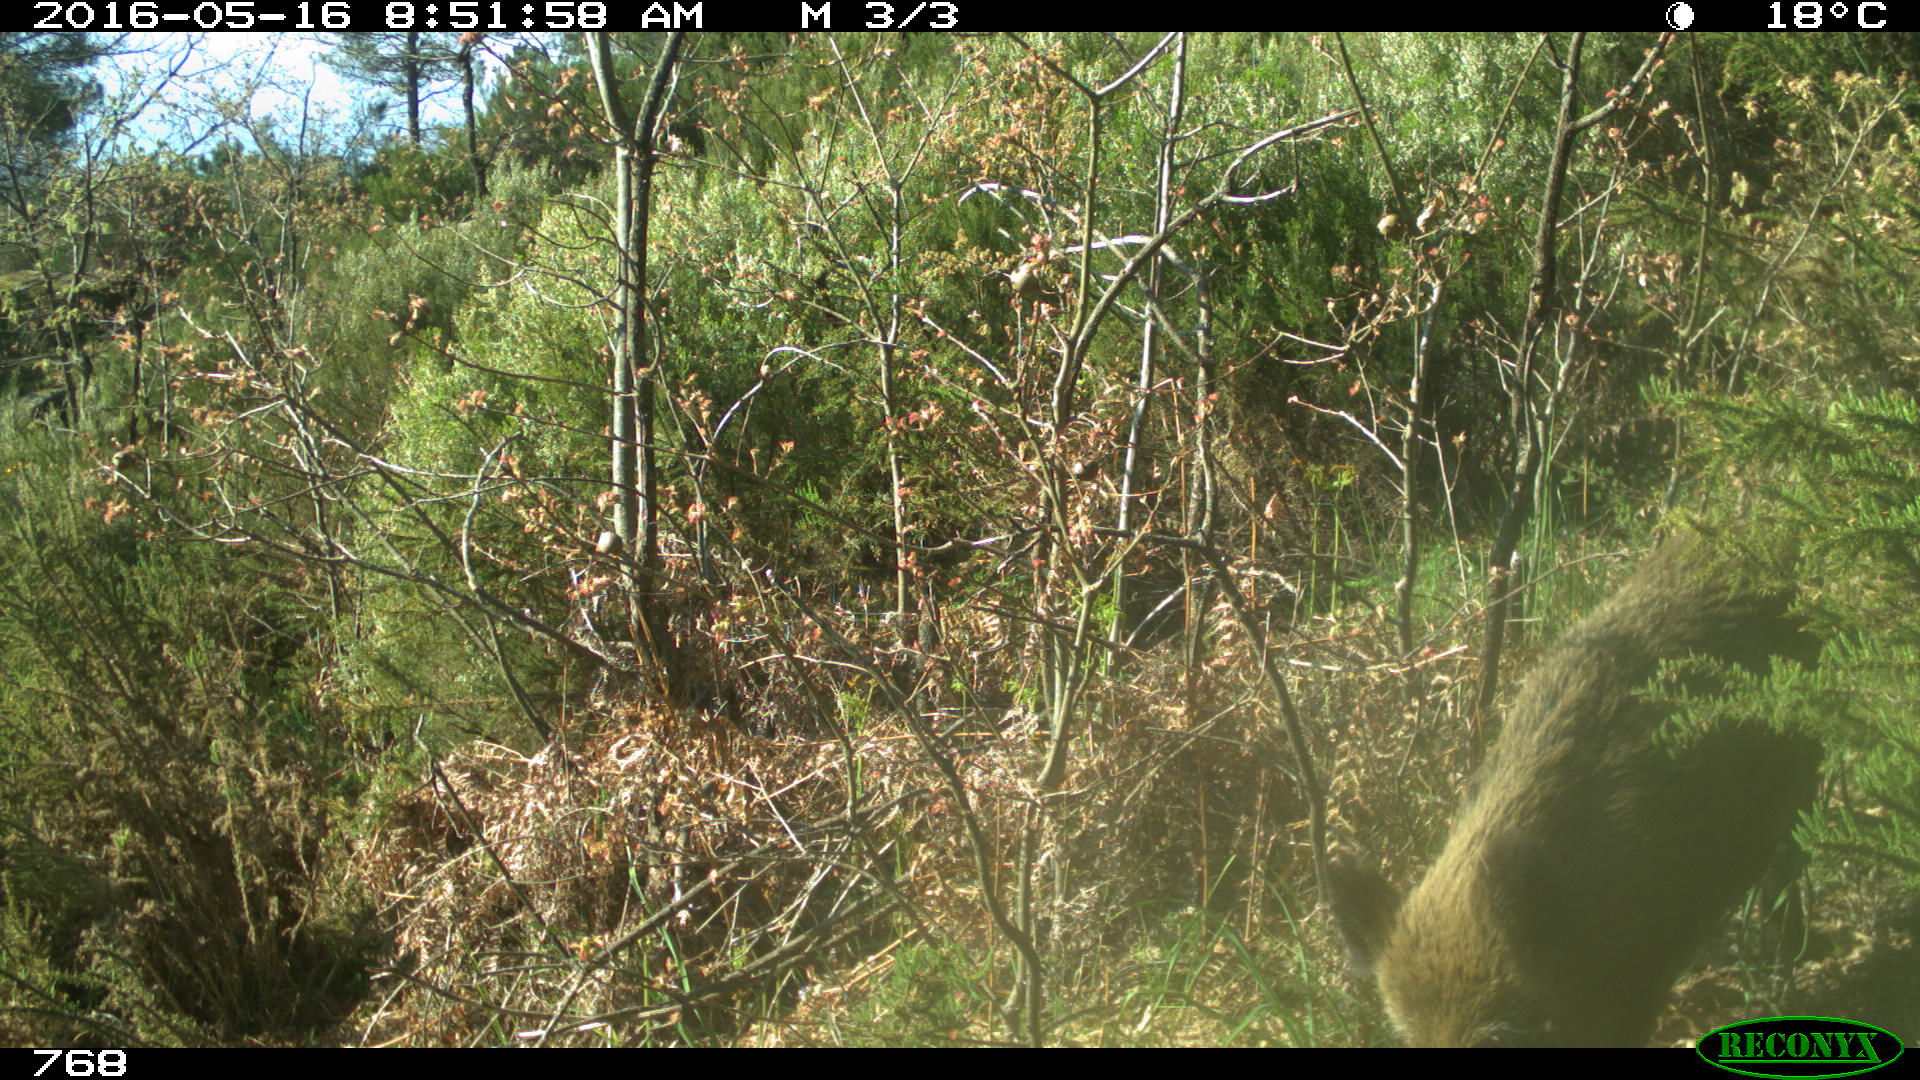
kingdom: Animalia
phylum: Chordata
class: Mammalia
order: Artiodactyla
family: Suidae
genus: Sus
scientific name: Sus scrofa
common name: Wild boar
